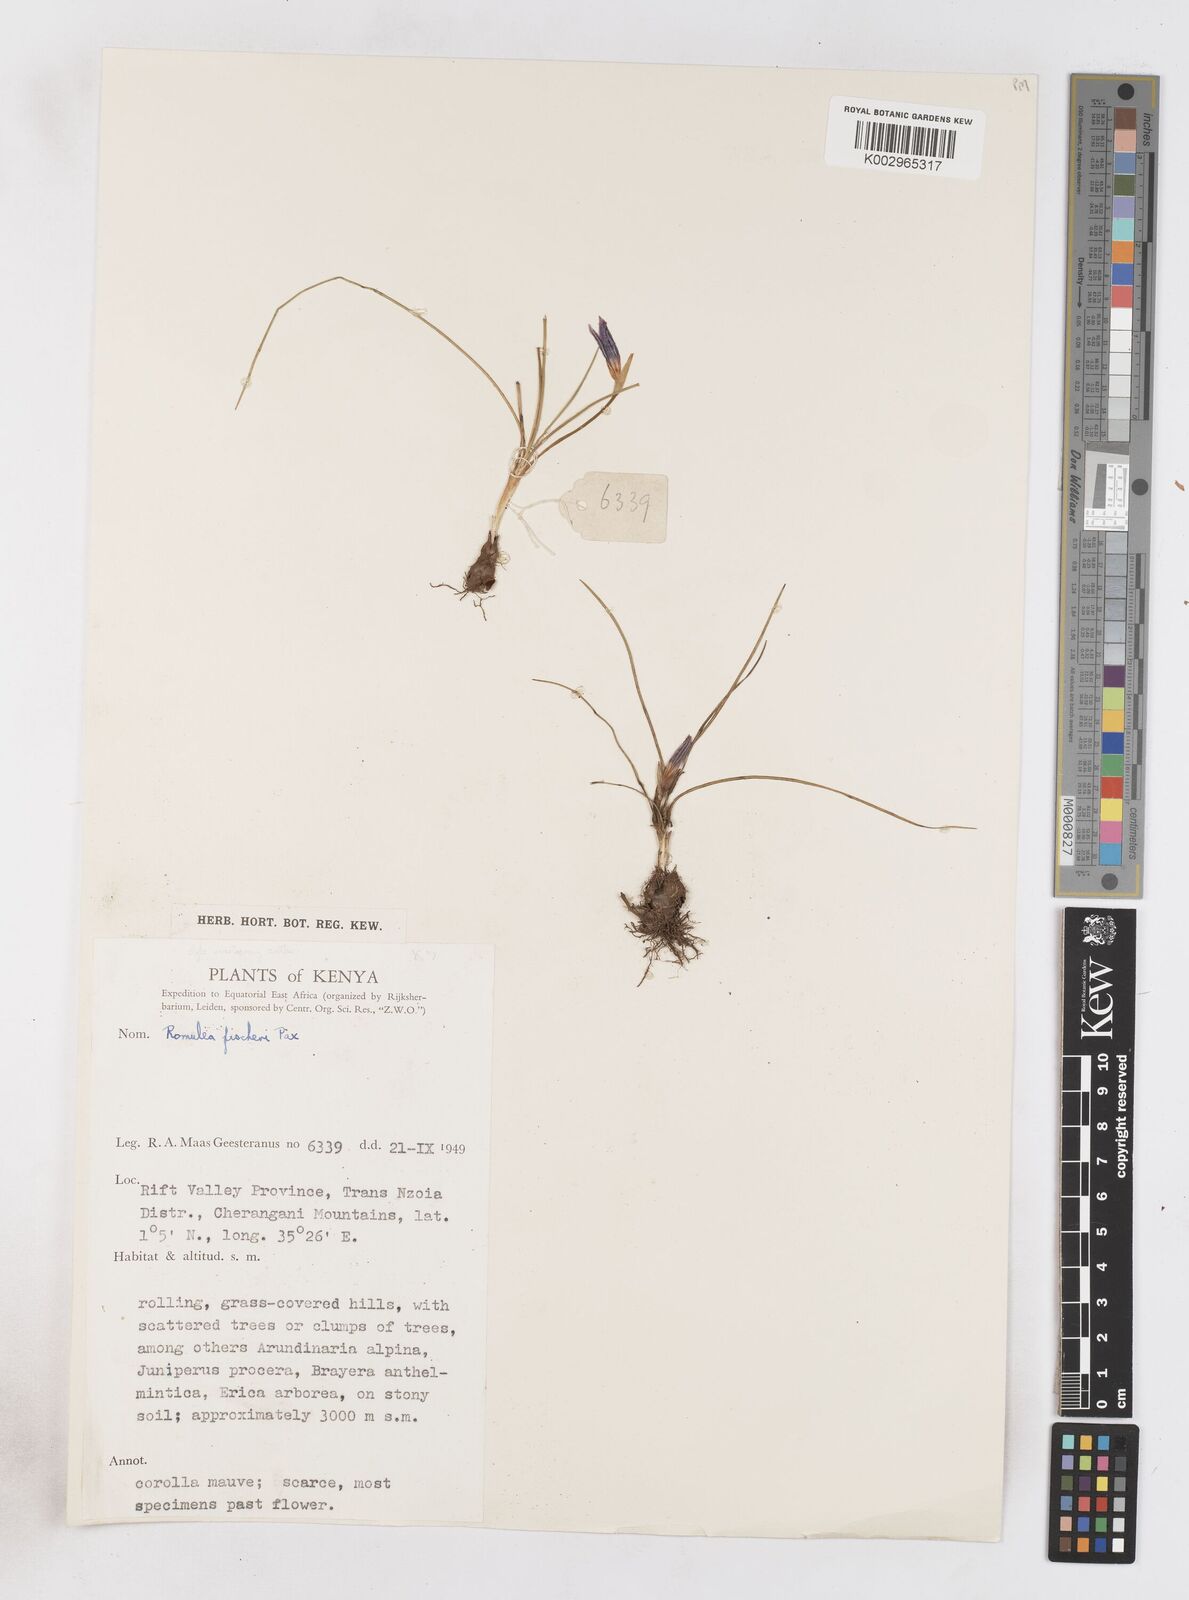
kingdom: Plantae
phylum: Tracheophyta
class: Liliopsida
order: Asparagales
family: Iridaceae
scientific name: Iridaceae
